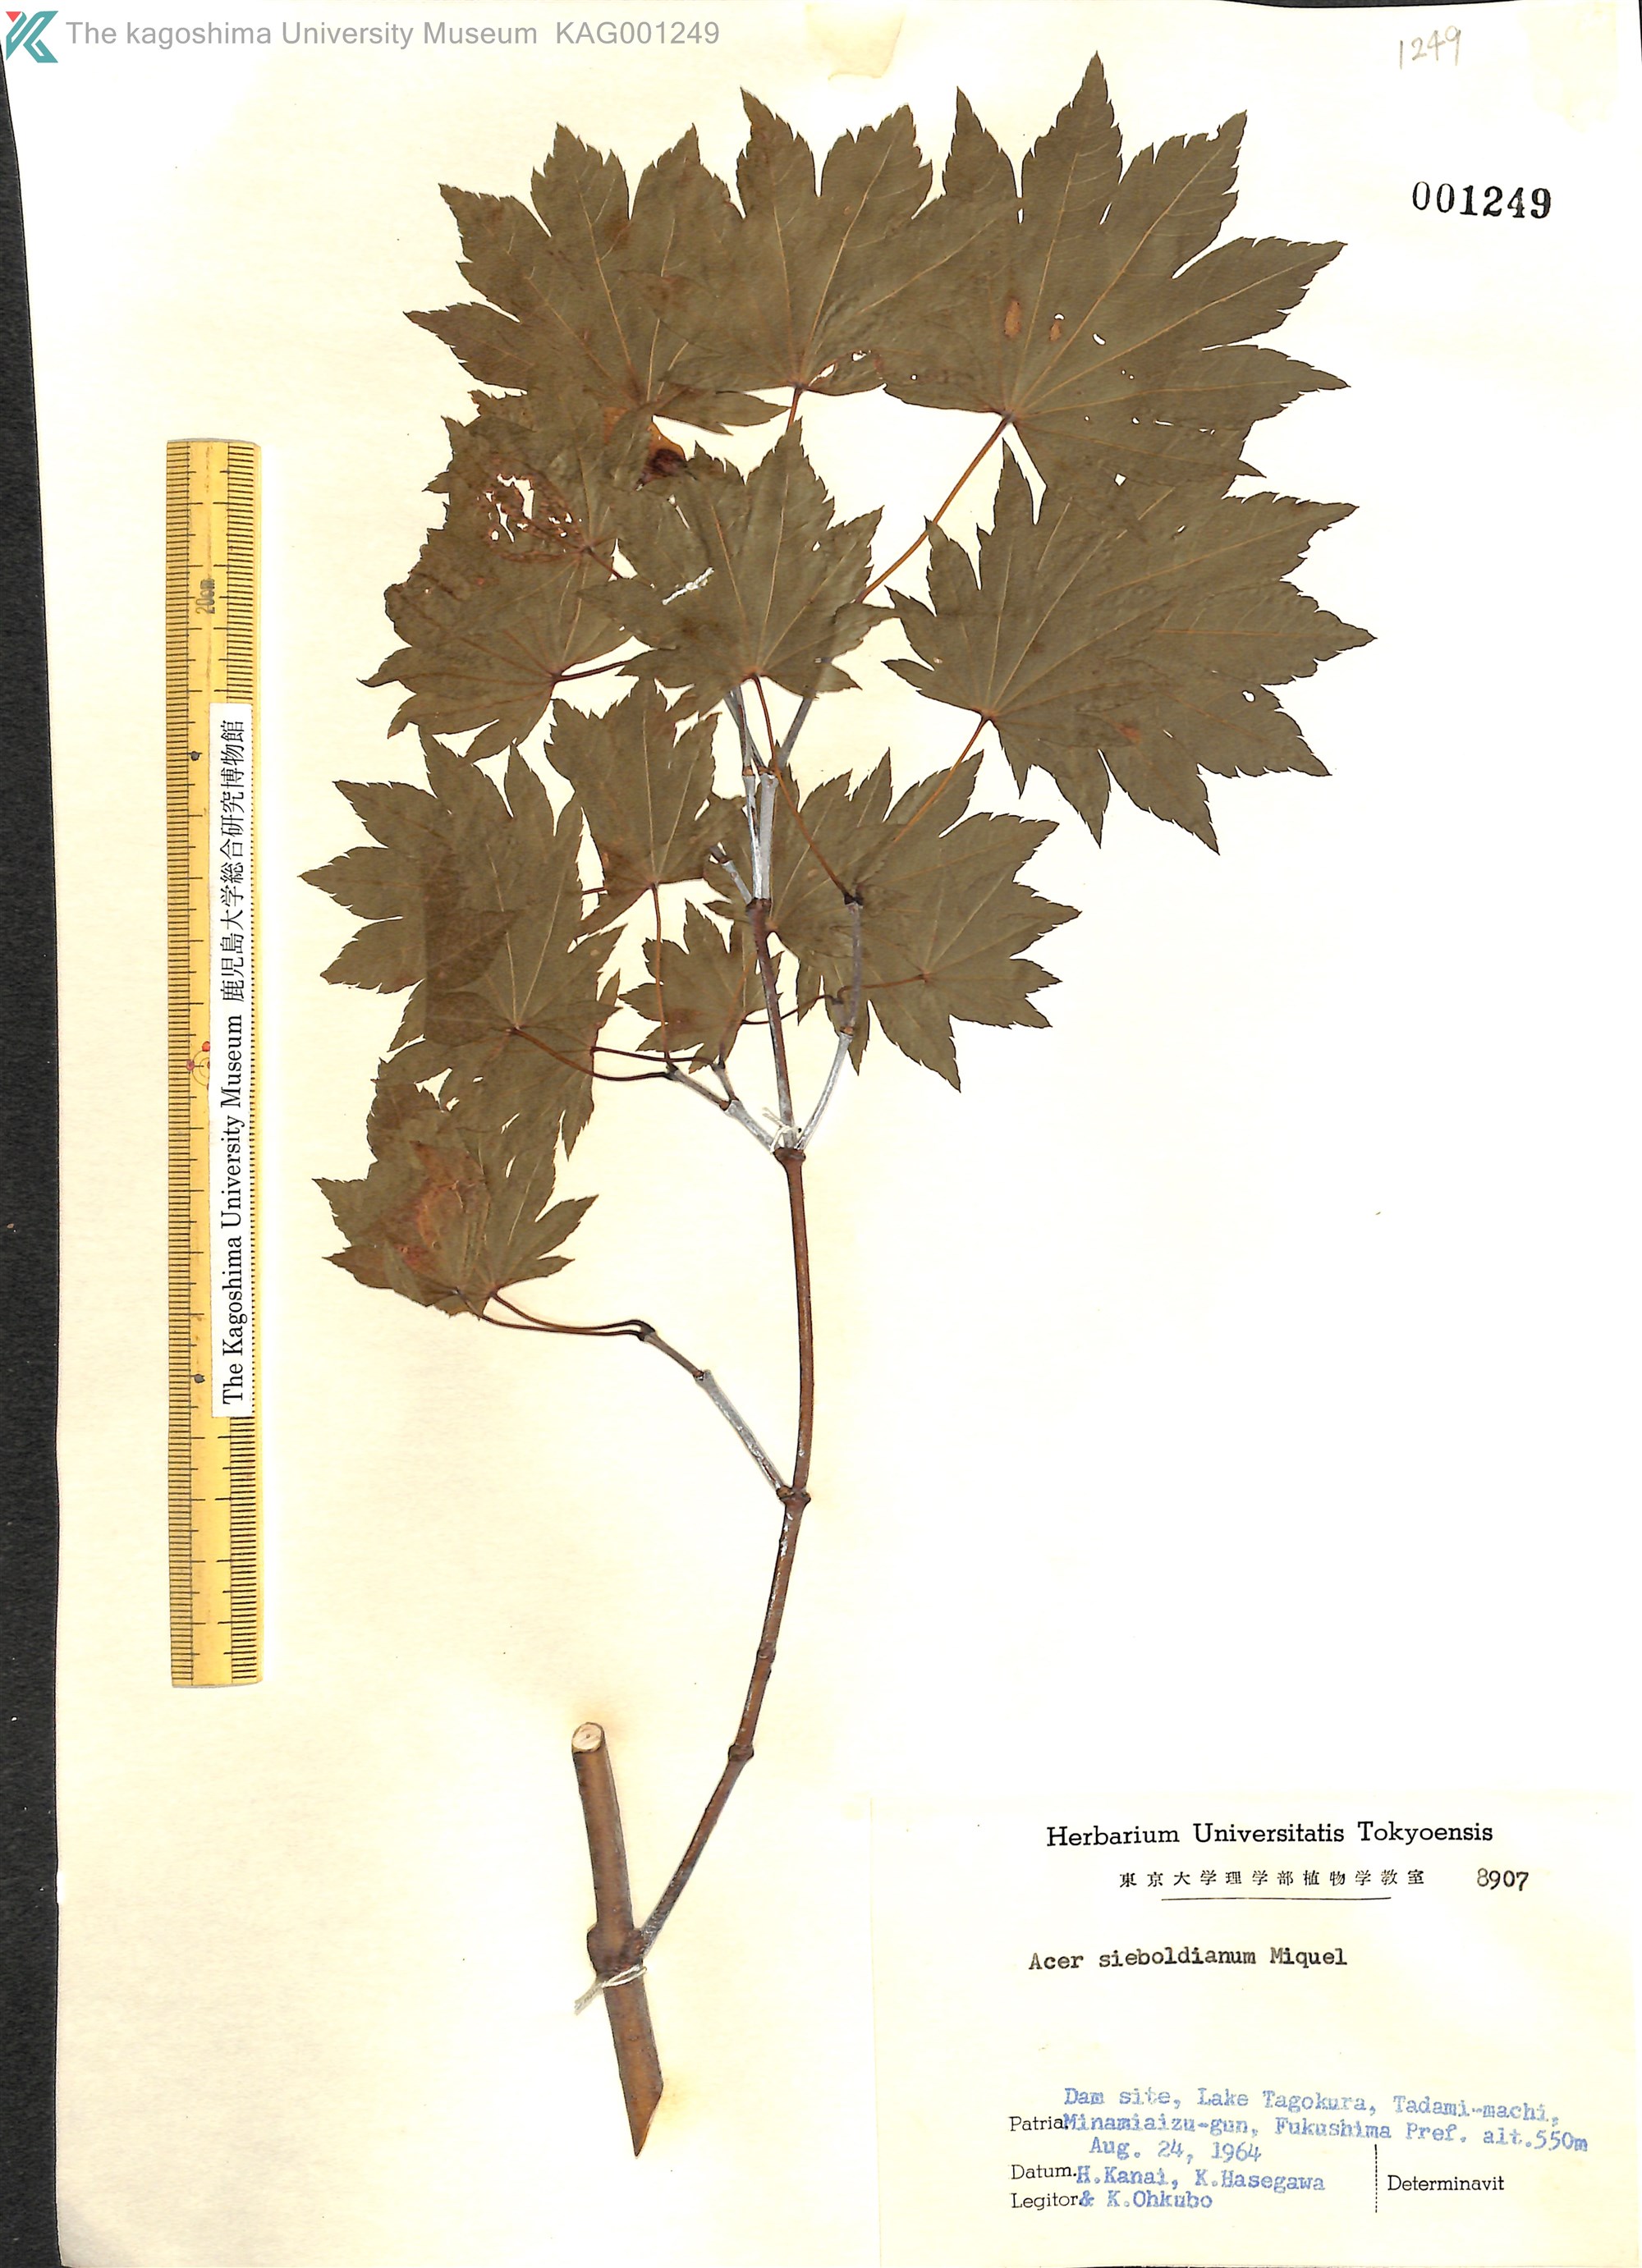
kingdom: Plantae
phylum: Tracheophyta
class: Magnoliopsida
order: Sapindales
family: Sapindaceae
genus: Acer
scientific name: Acer sieboldianum
